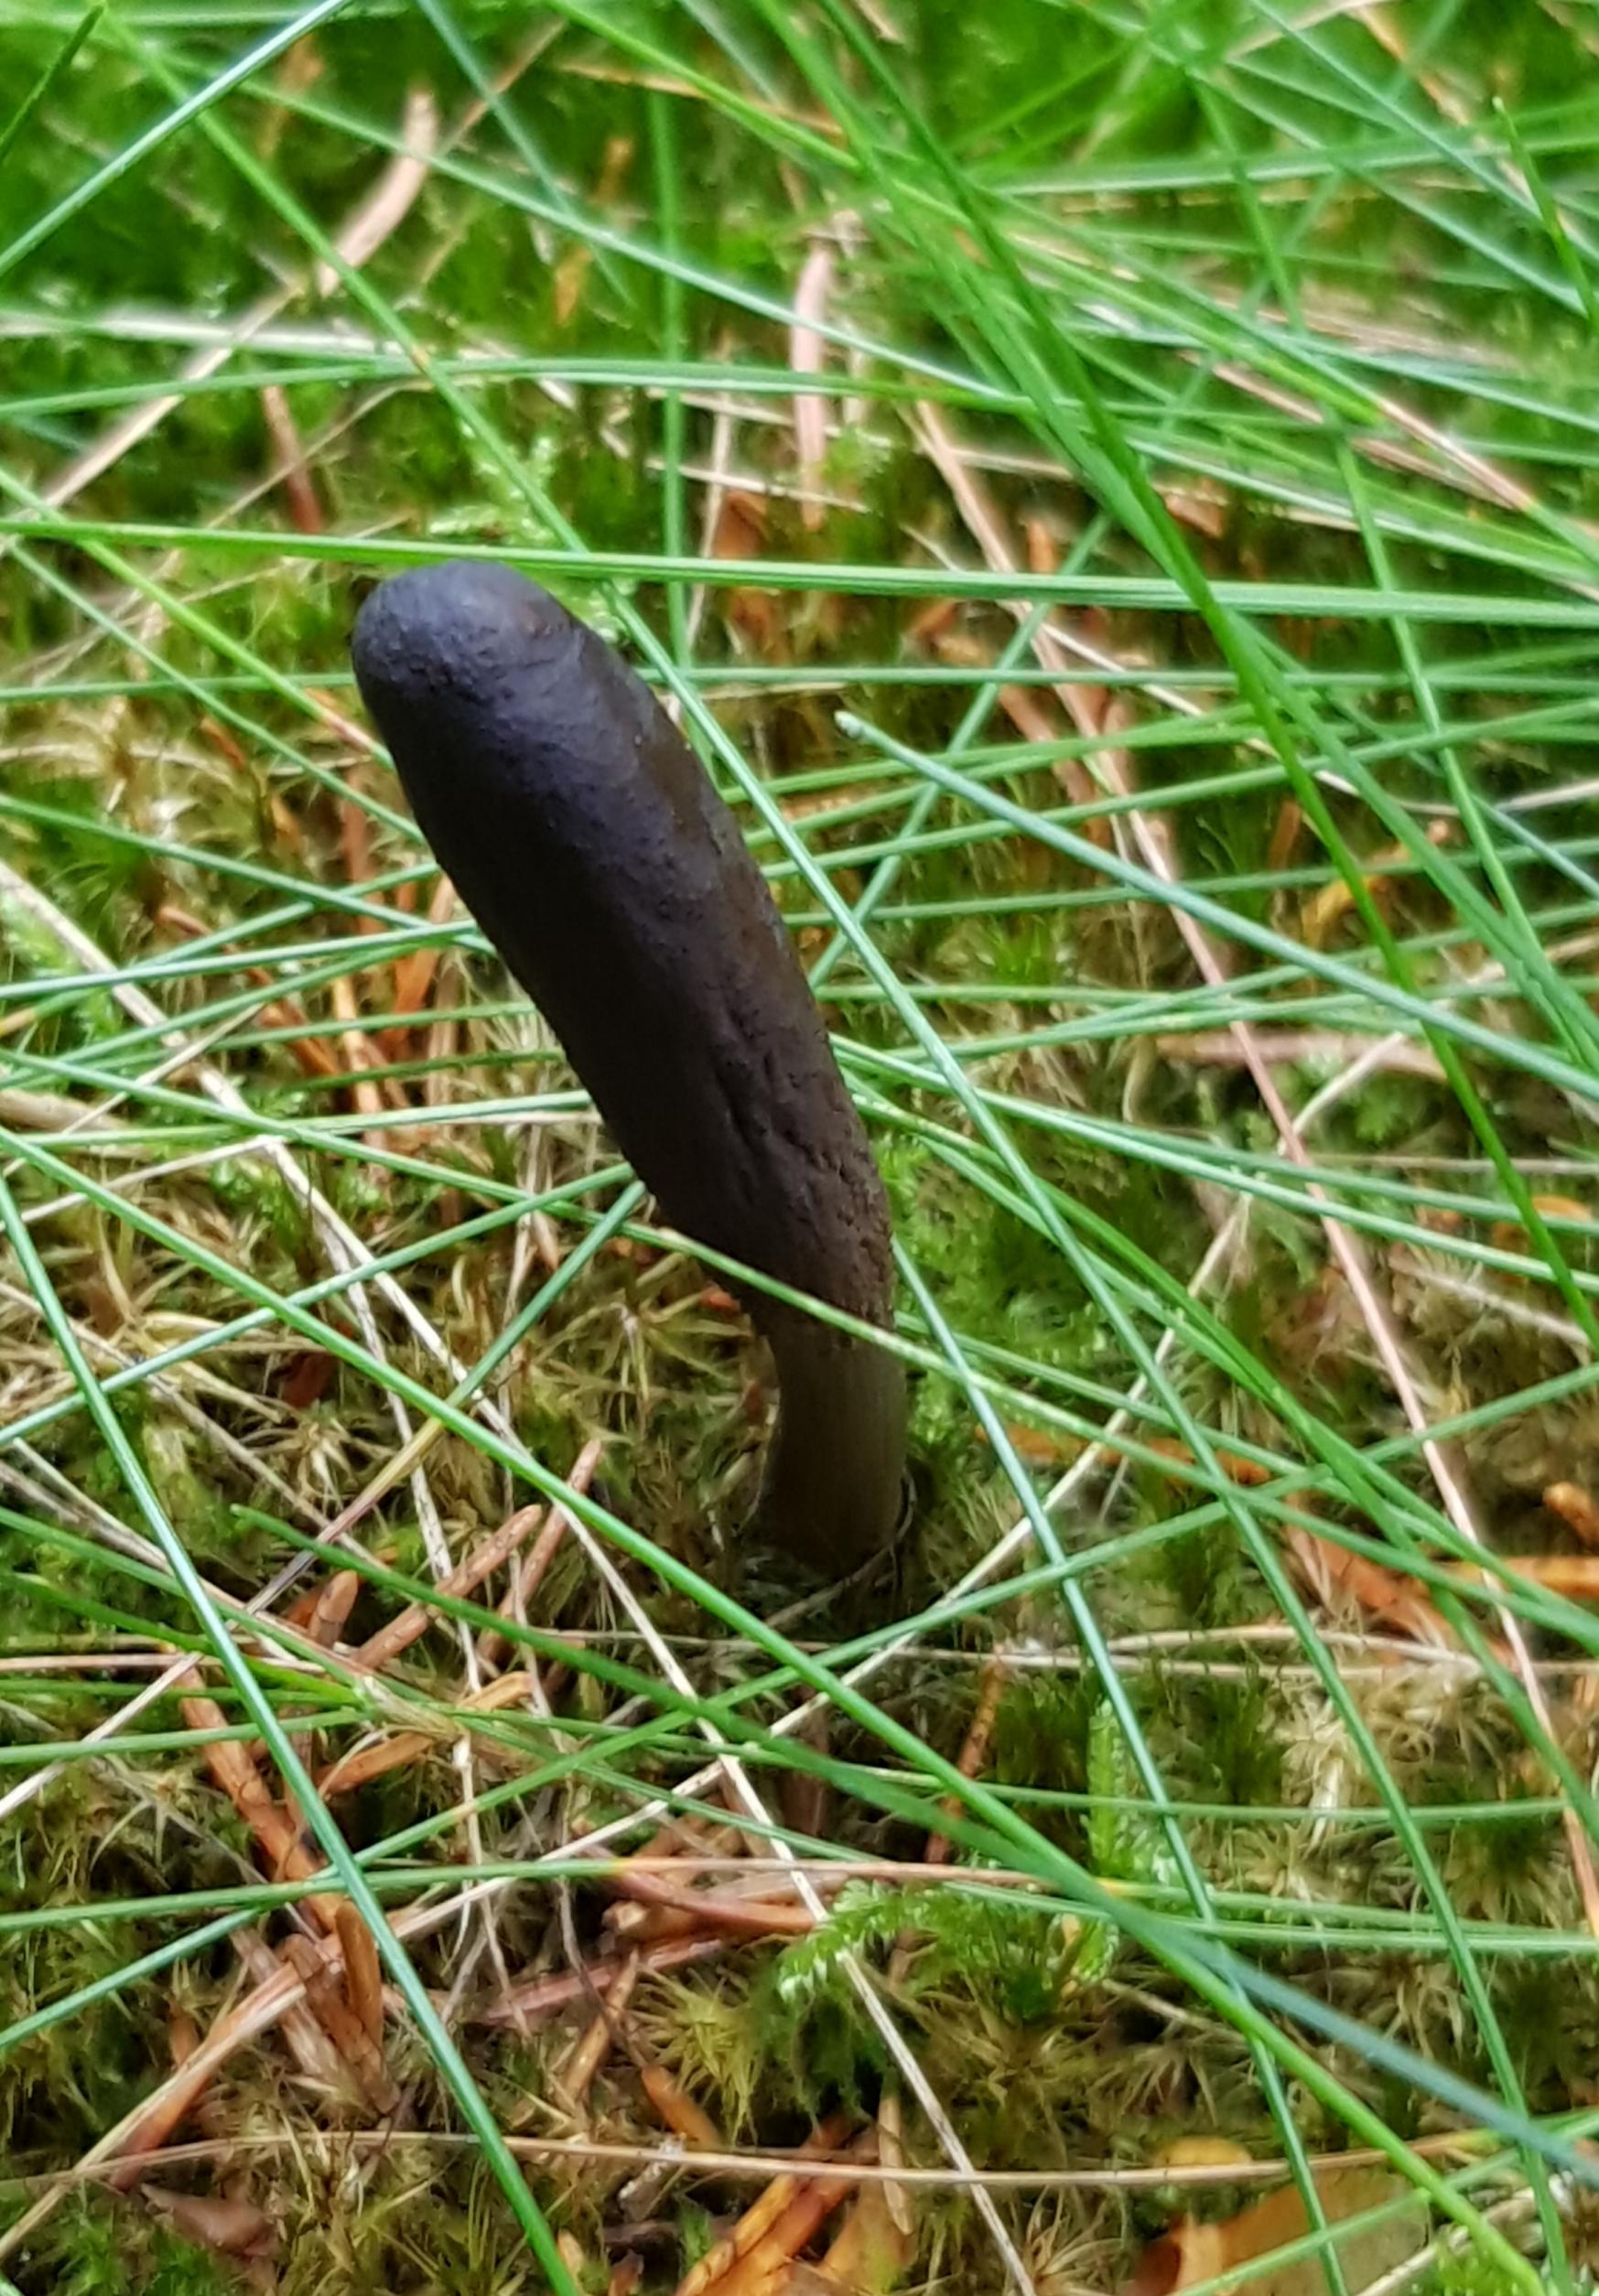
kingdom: Fungi
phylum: Ascomycota
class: Sordariomycetes
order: Hypocreales
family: Ophiocordycipitaceae
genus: Tolypocladium
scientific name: Tolypocladium ophioglossoides
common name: slank snyltekølle
